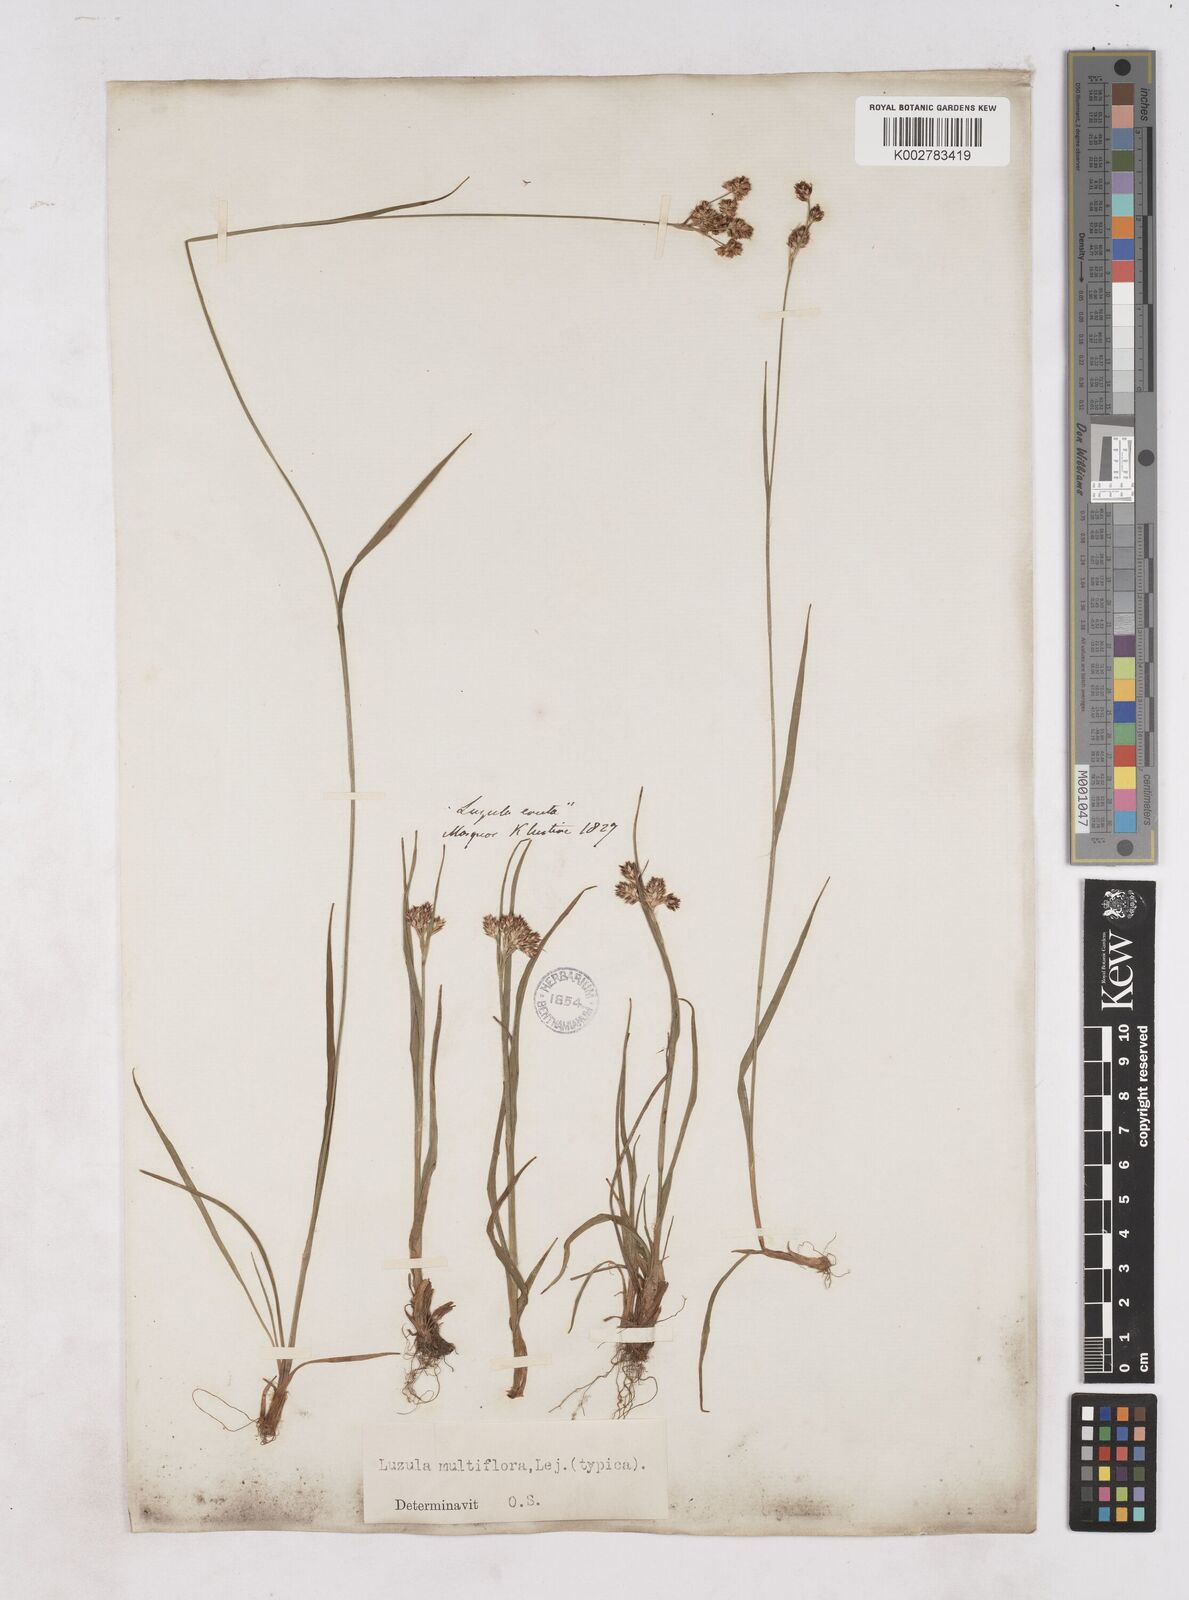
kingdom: Plantae
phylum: Tracheophyta
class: Liliopsida
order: Poales
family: Juncaceae
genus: Luzula
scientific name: Luzula multiflora
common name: Heath wood-rush
